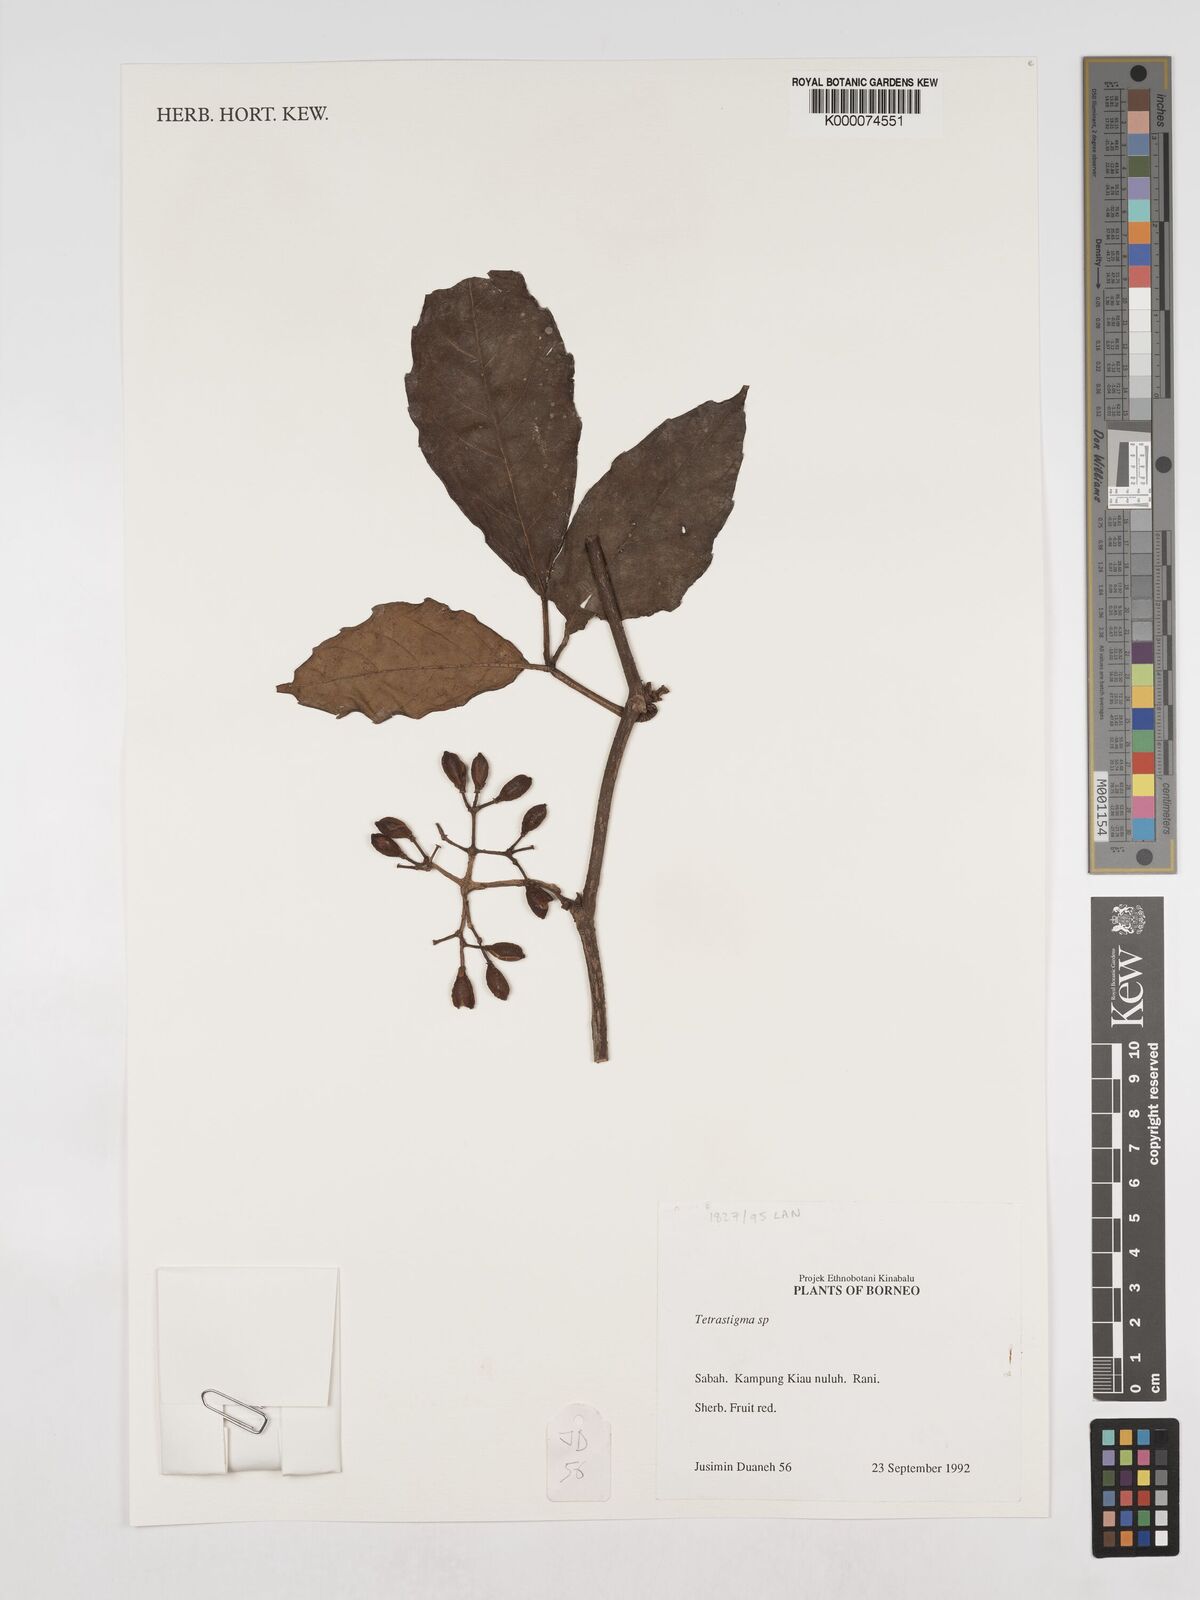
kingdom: Plantae
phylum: Tracheophyta
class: Magnoliopsida
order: Vitales
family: Vitaceae
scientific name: Vitaceae
